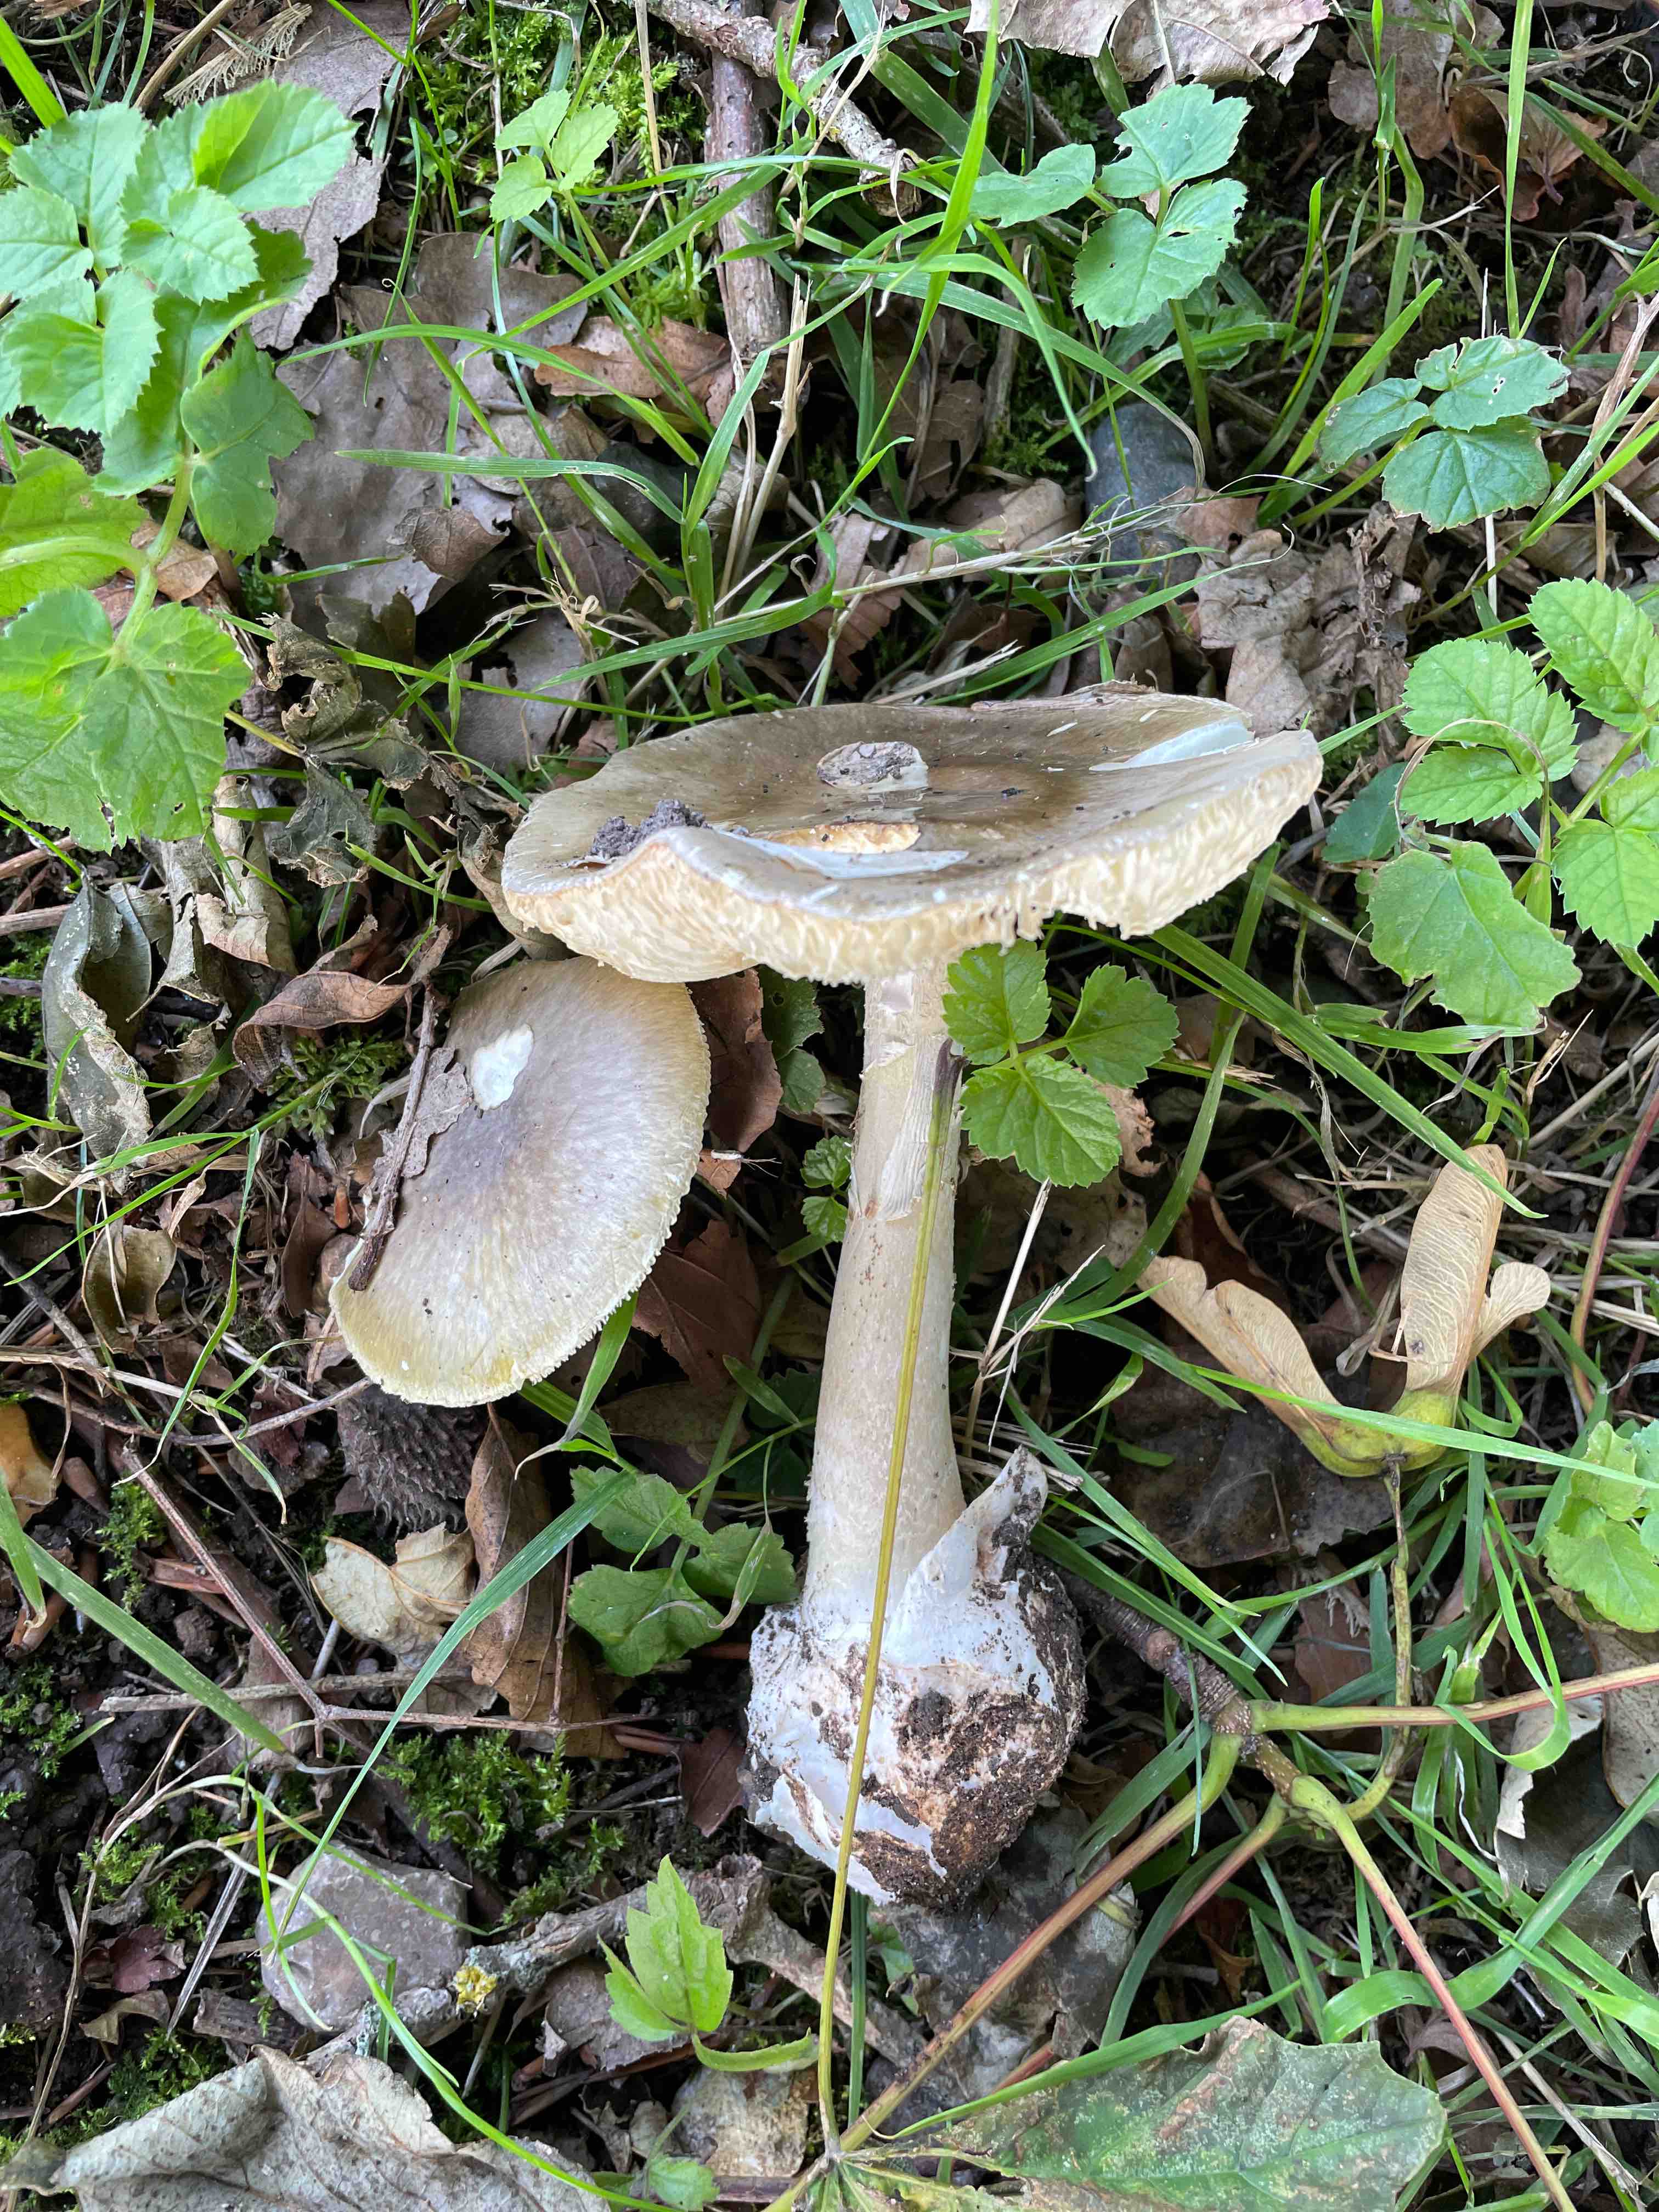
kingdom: Fungi
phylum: Basidiomycota
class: Agaricomycetes
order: Agaricales
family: Amanitaceae
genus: Amanita
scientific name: Amanita phalloides
